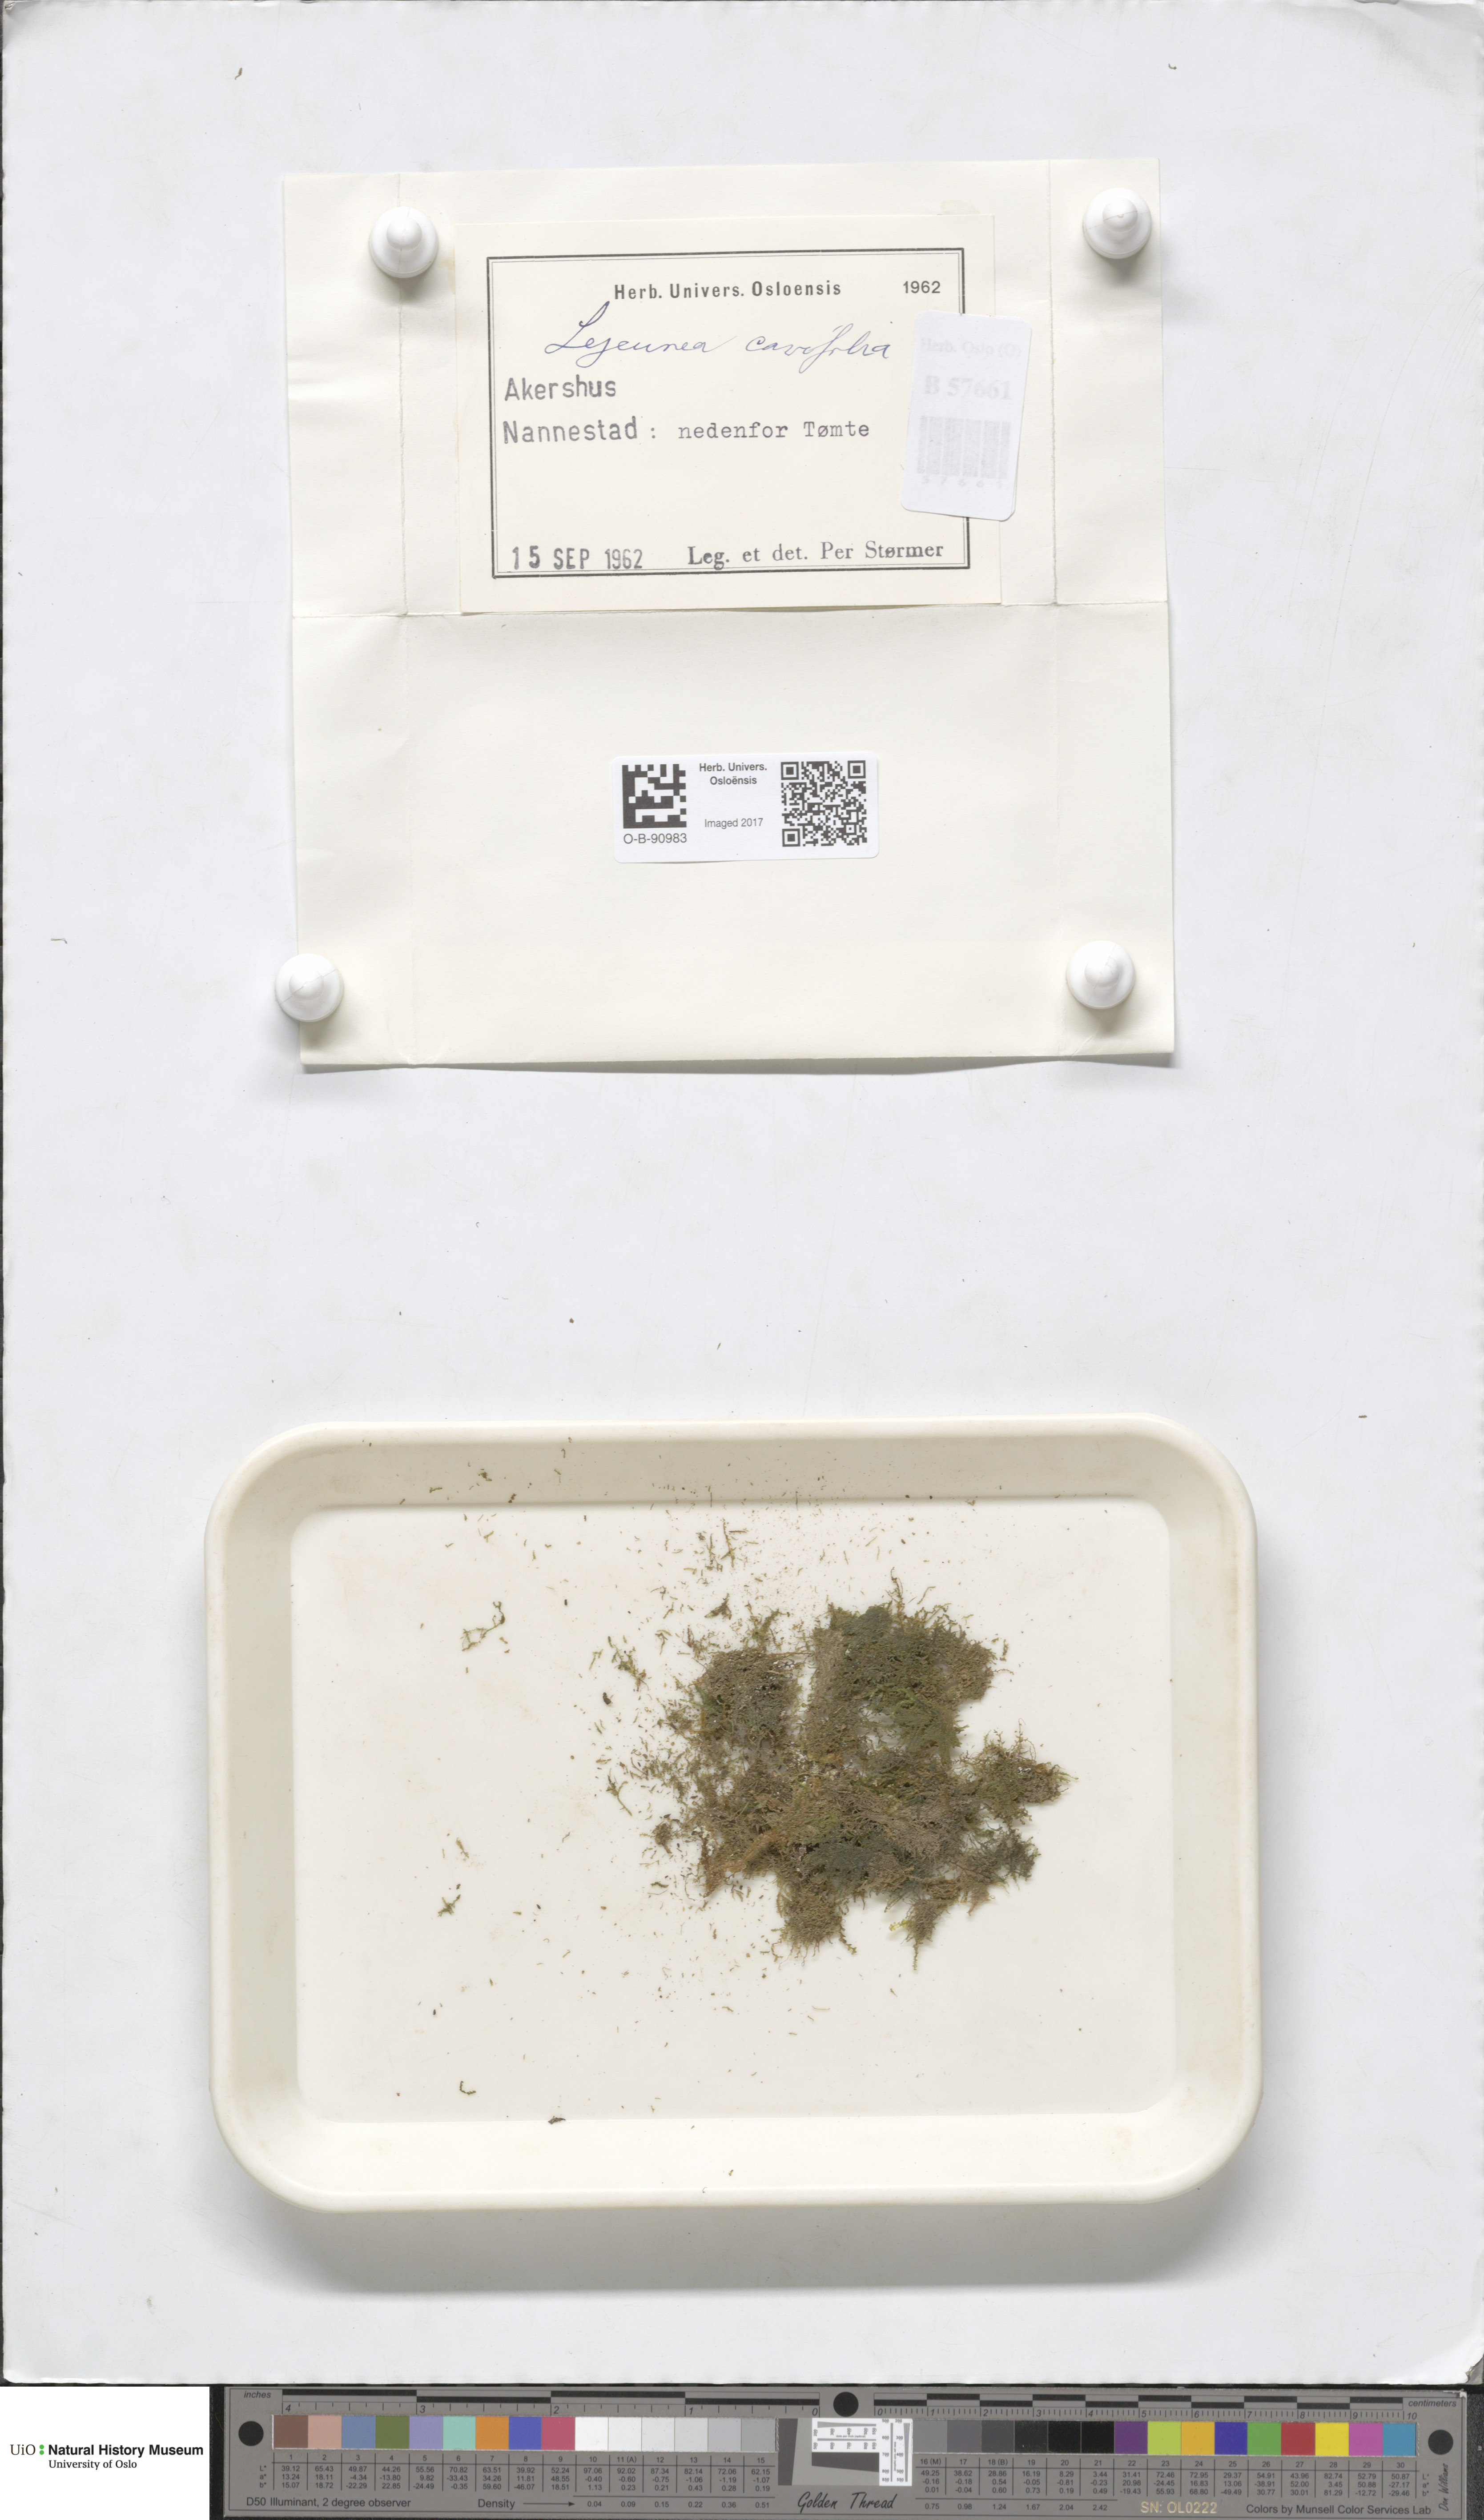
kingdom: Plantae
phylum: Marchantiophyta
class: Jungermanniopsida
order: Porellales
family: Lejeuneaceae
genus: Lejeunea
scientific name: Lejeunea cavifolia
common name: Least pouncewort
